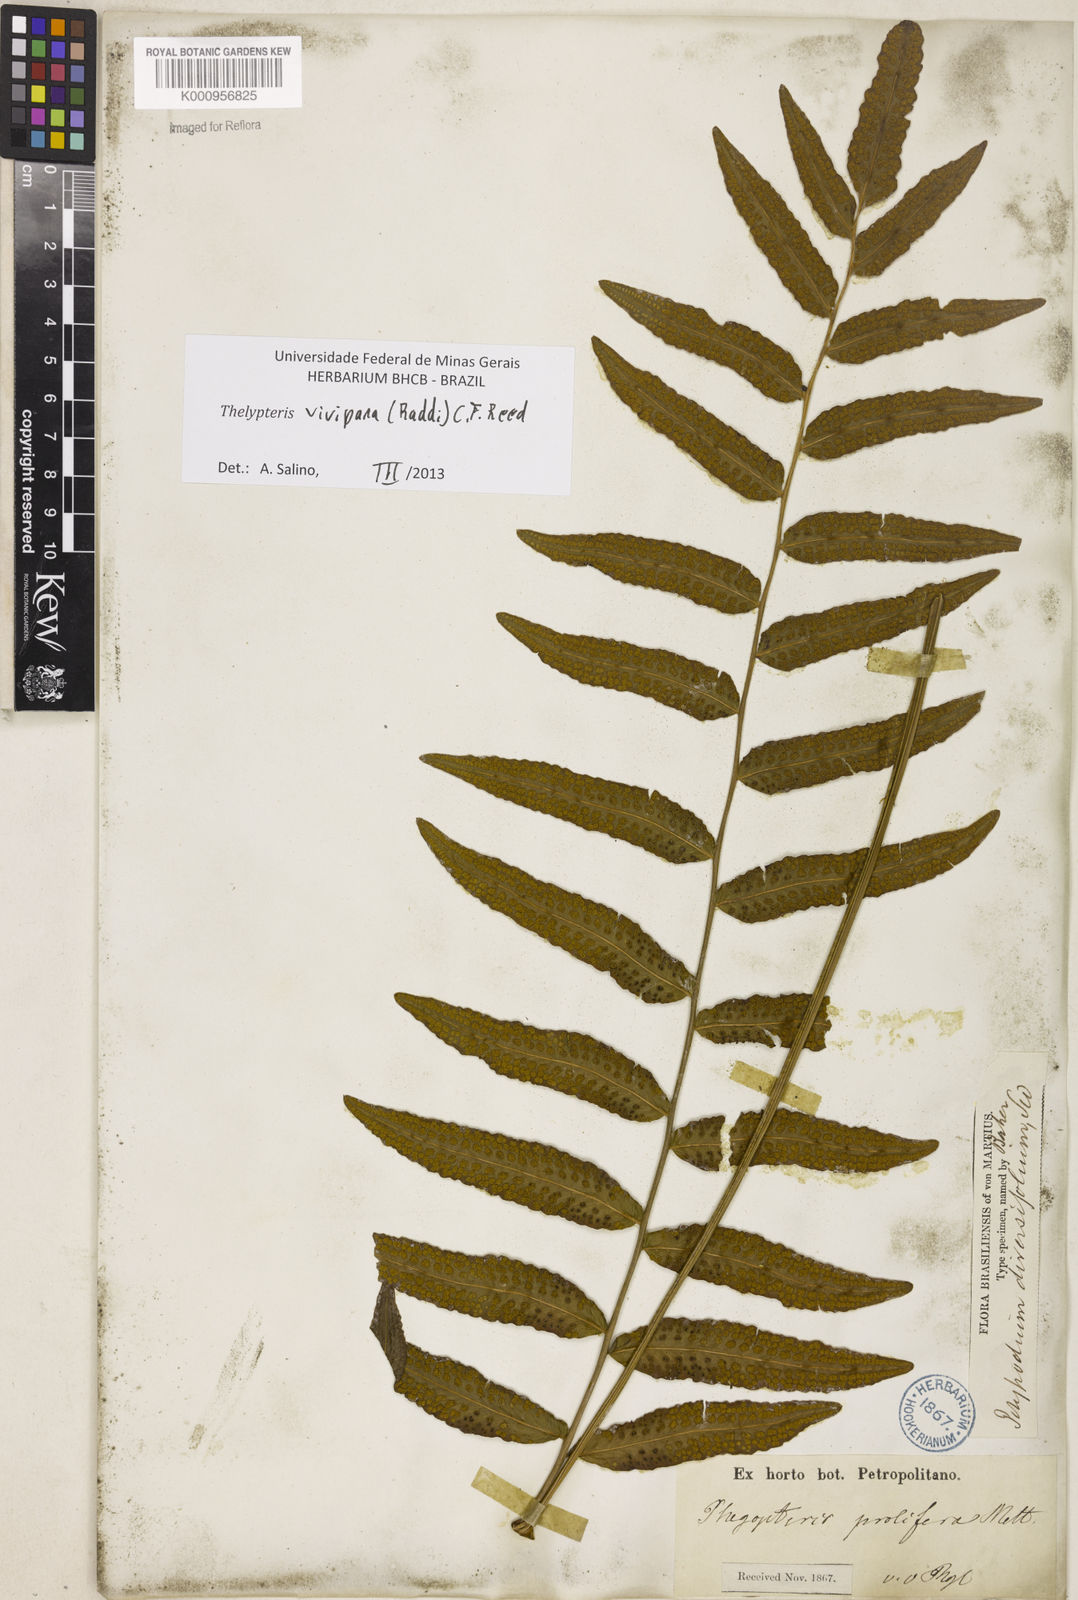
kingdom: Plantae
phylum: Tracheophyta
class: Polypodiopsida
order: Polypodiales
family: Thelypteridaceae
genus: Goniopteris
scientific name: Goniopteris vivipara
